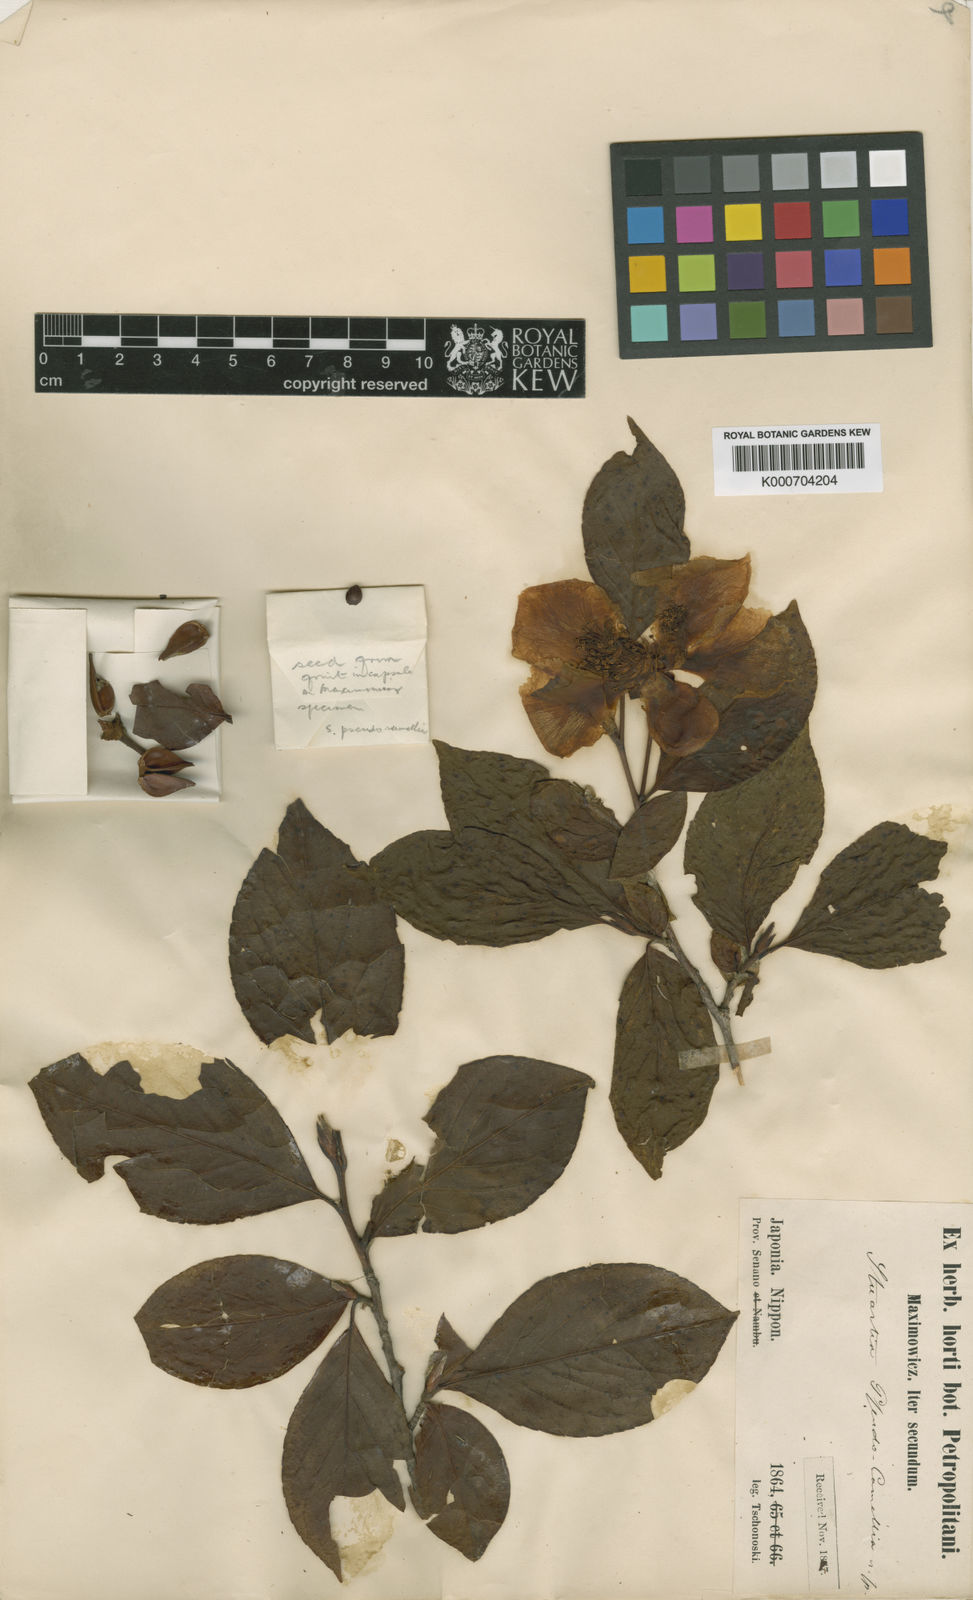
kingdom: Plantae
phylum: Tracheophyta
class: Magnoliopsida
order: Ericales
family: Theaceae
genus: Stewartia
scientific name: Stewartia pseudocamellia
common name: Japanese stewartia
